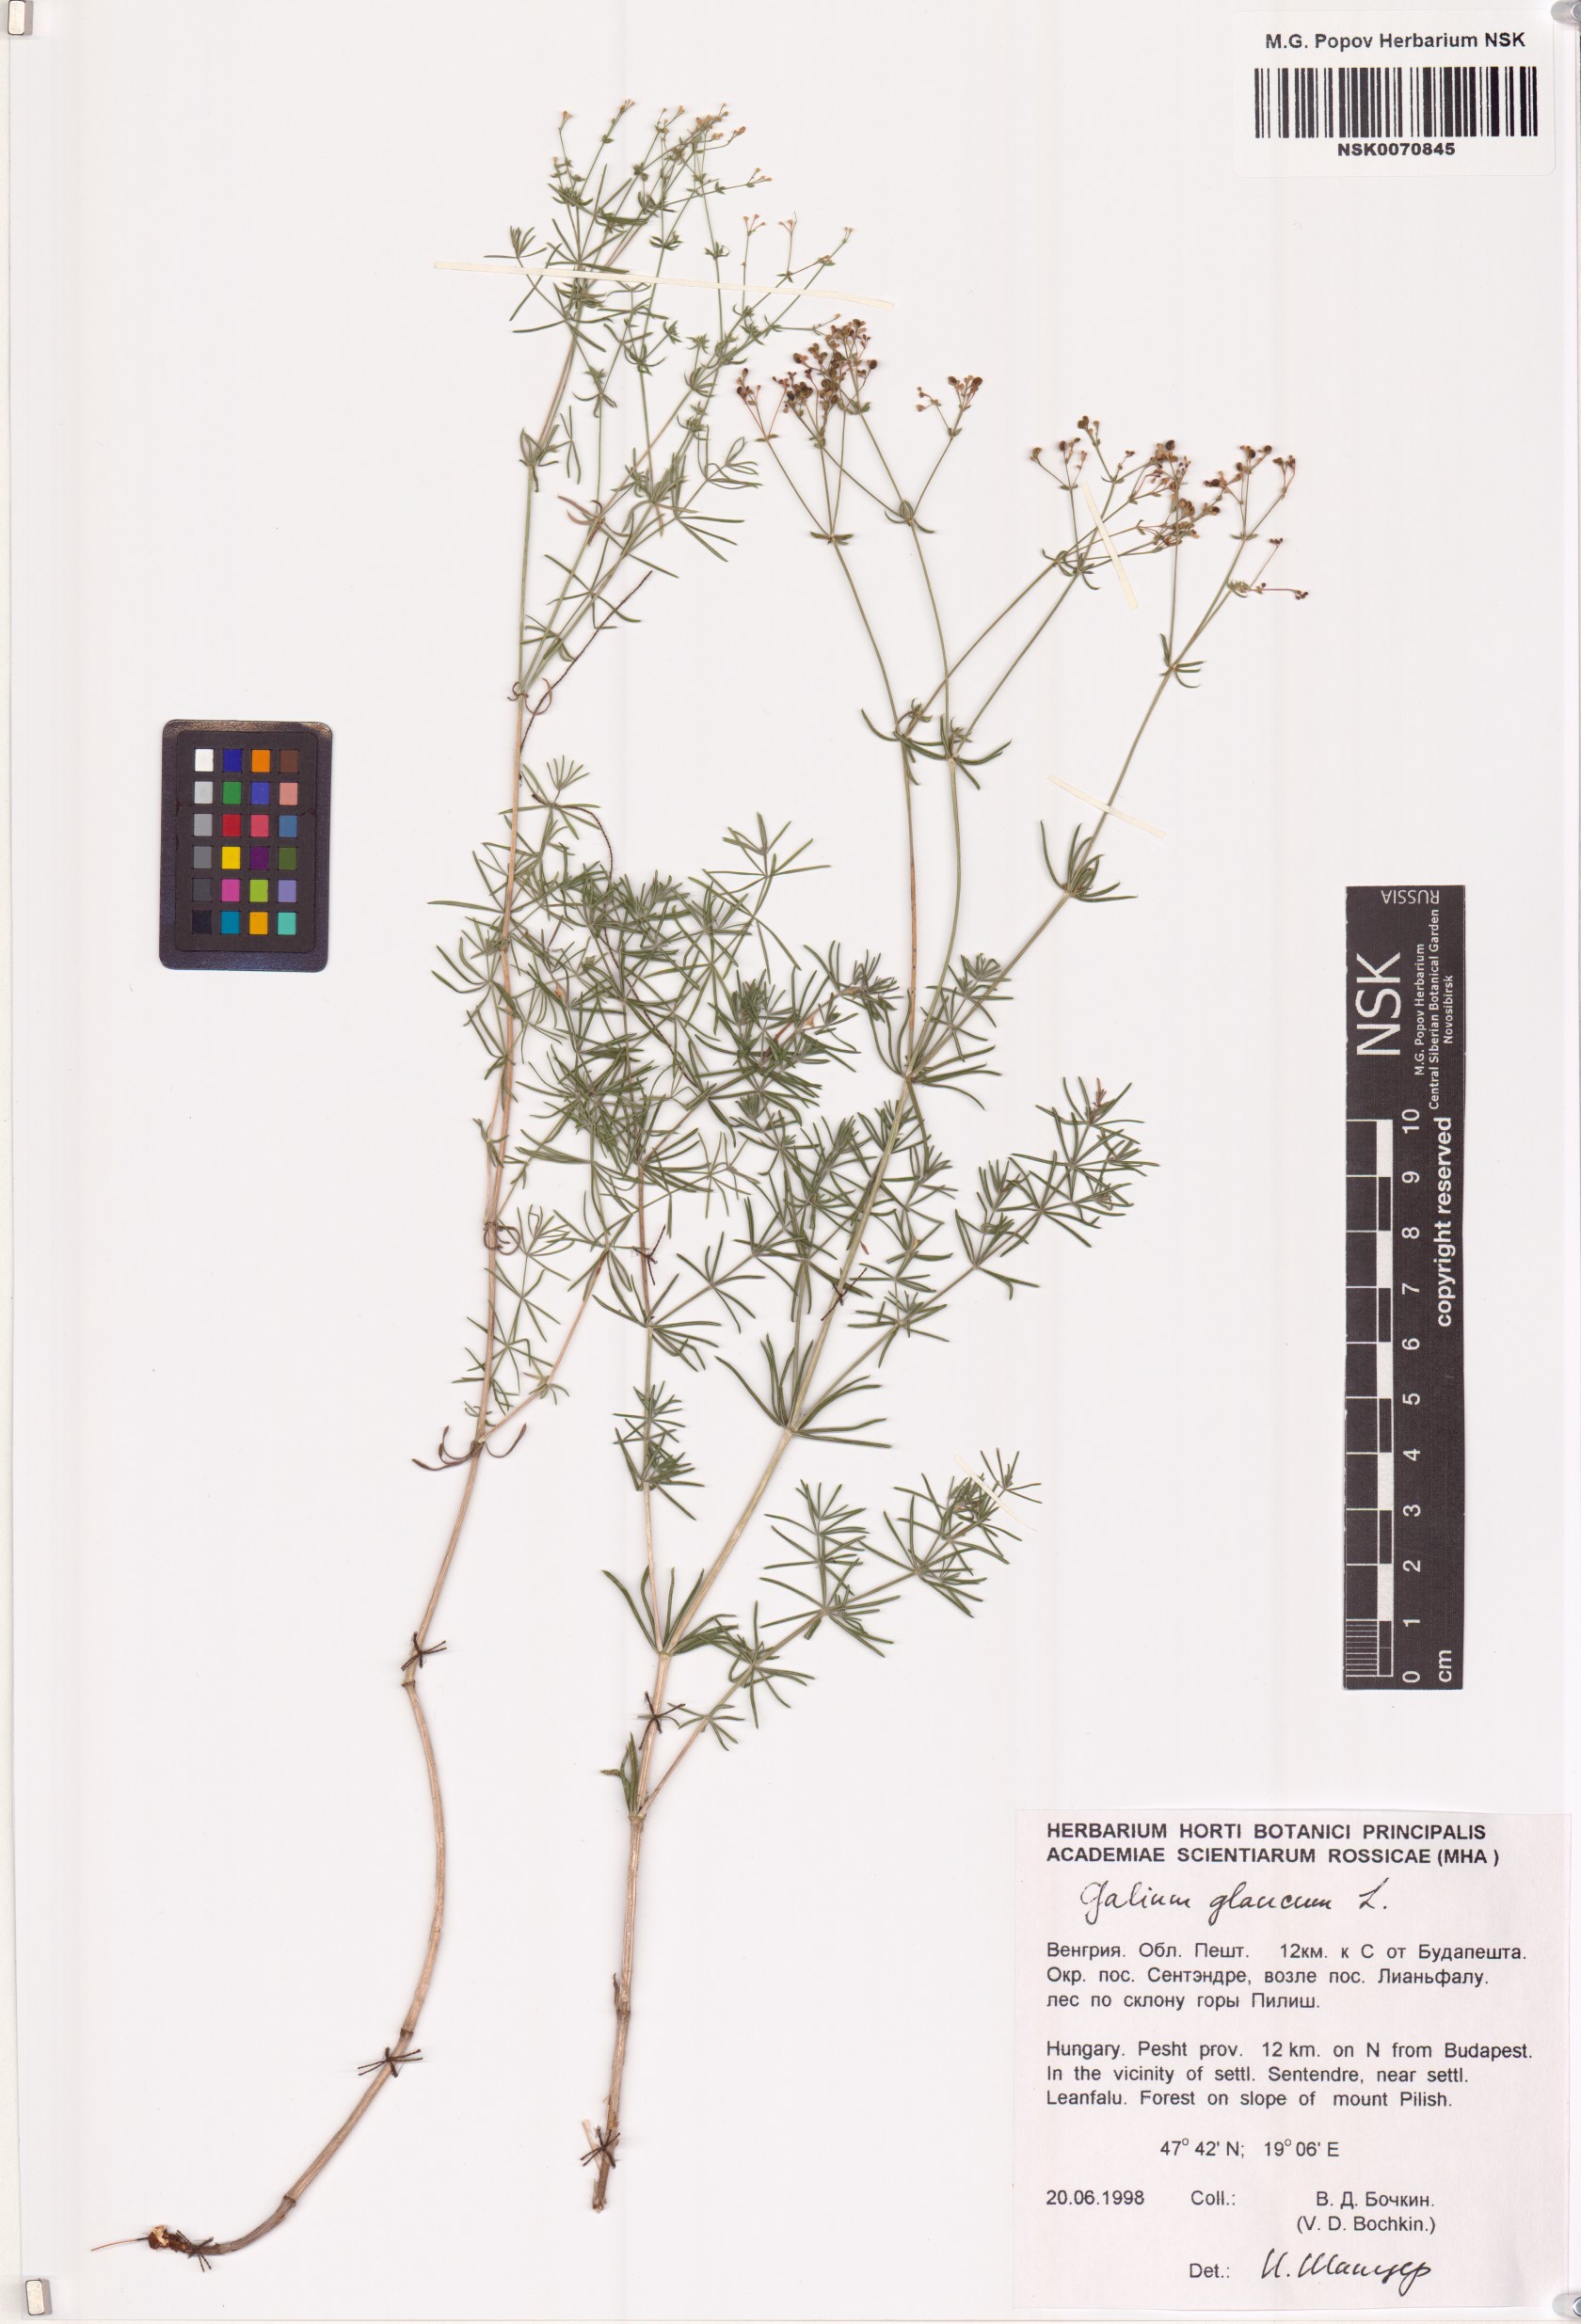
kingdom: Plantae
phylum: Tracheophyta
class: Magnoliopsida
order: Gentianales
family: Rubiaceae
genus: Galium
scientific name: Galium glaucum
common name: Waxy bedstraw
